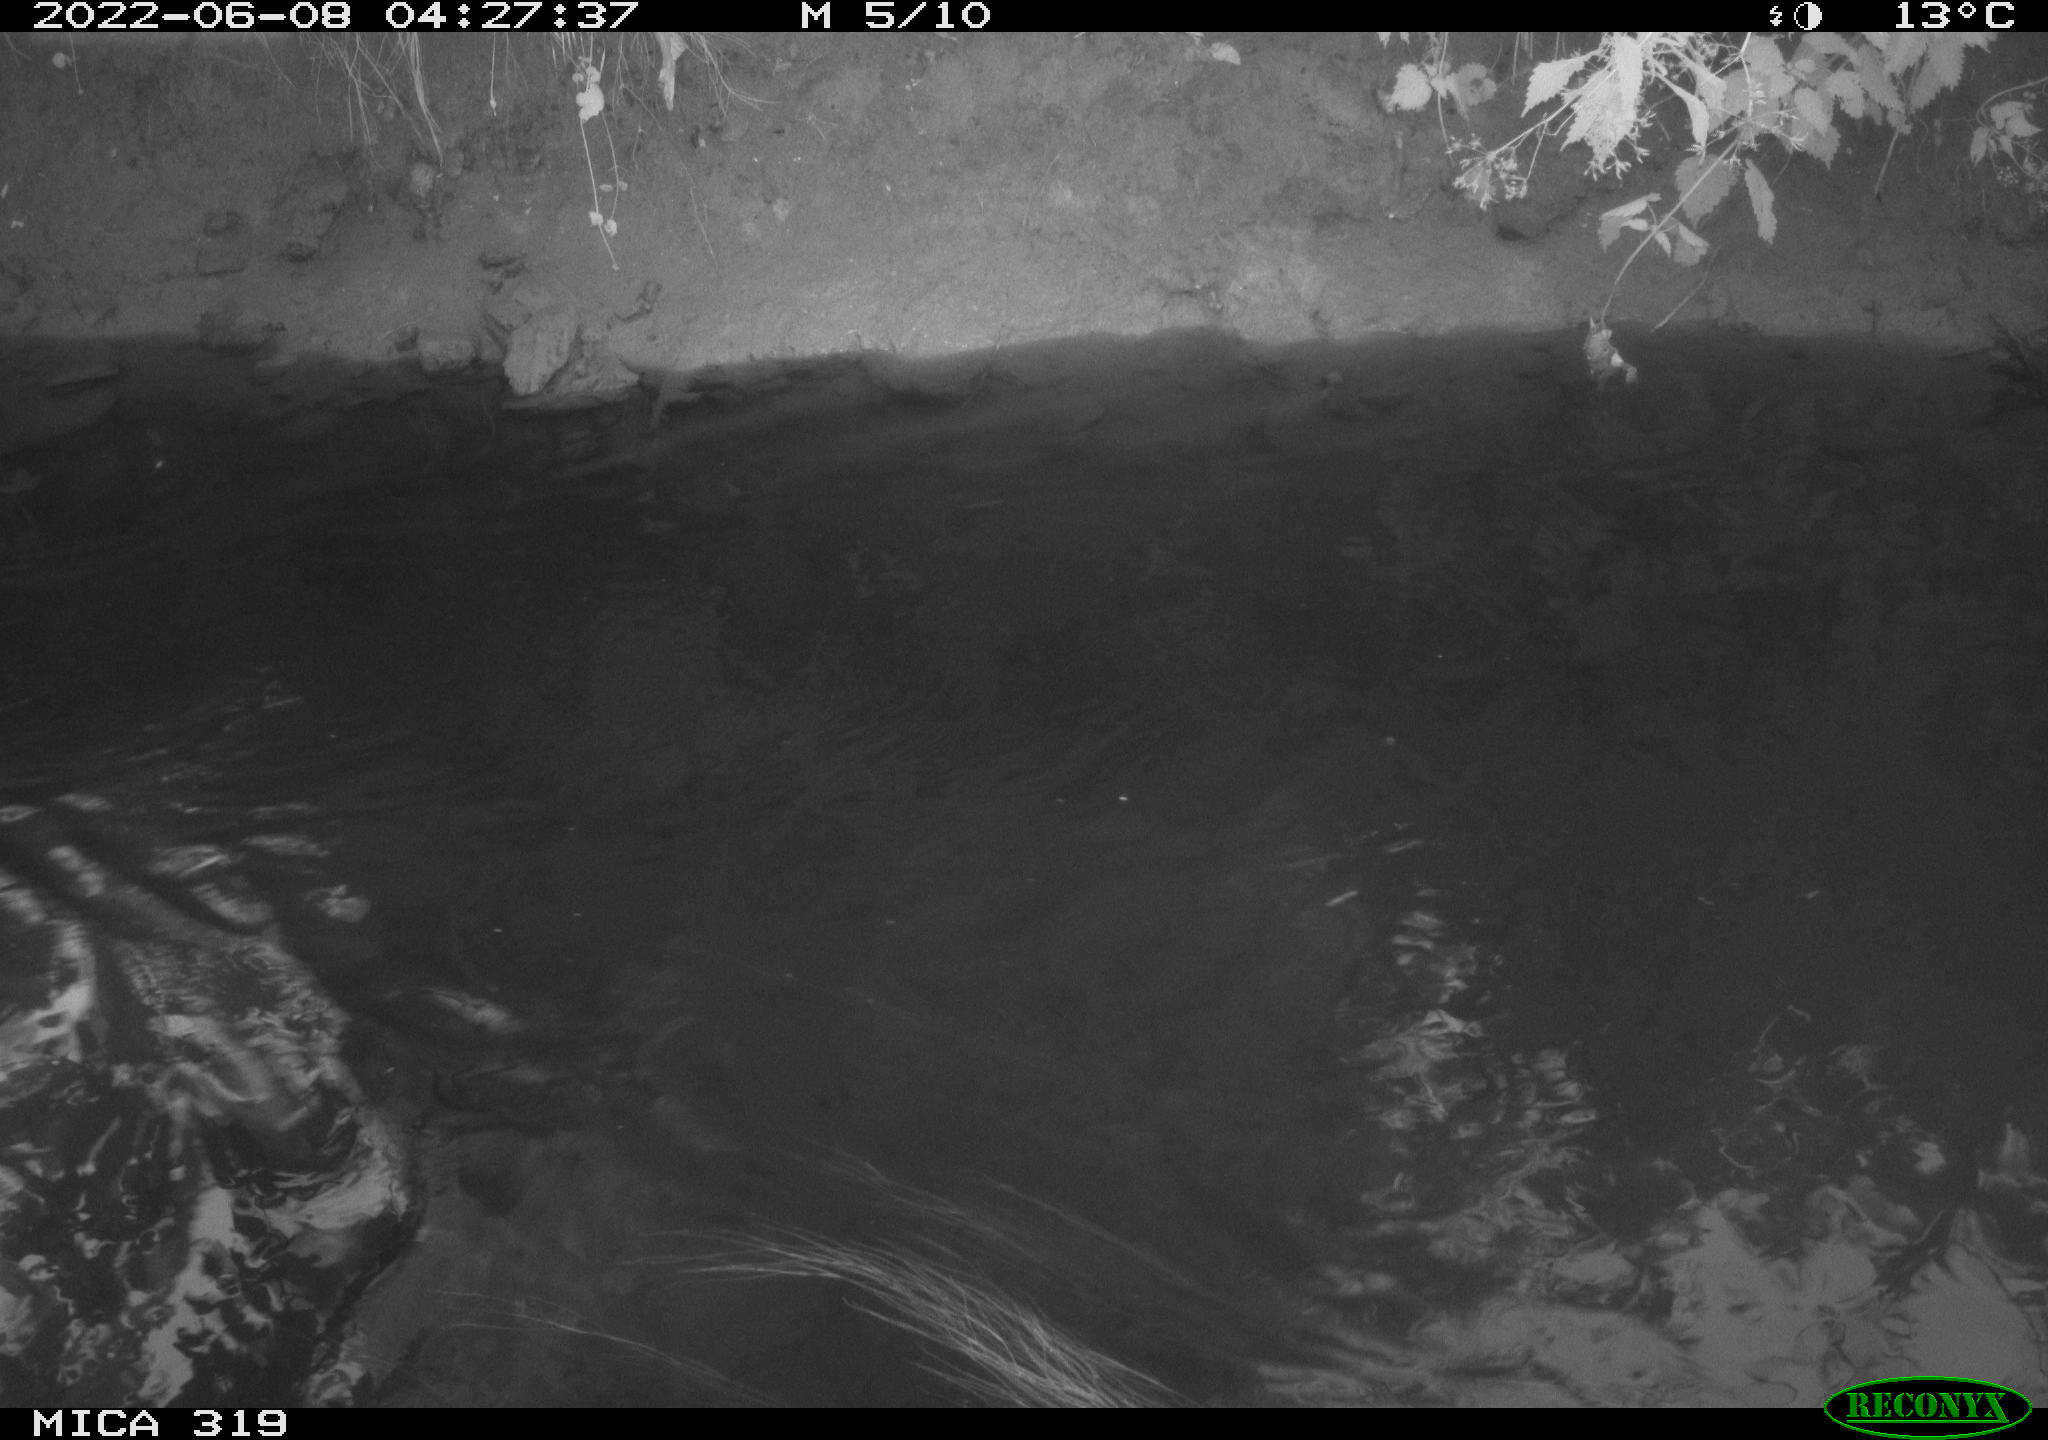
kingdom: Animalia
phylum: Chordata
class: Aves
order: Anseriformes
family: Anatidae
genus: Anas
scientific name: Anas
